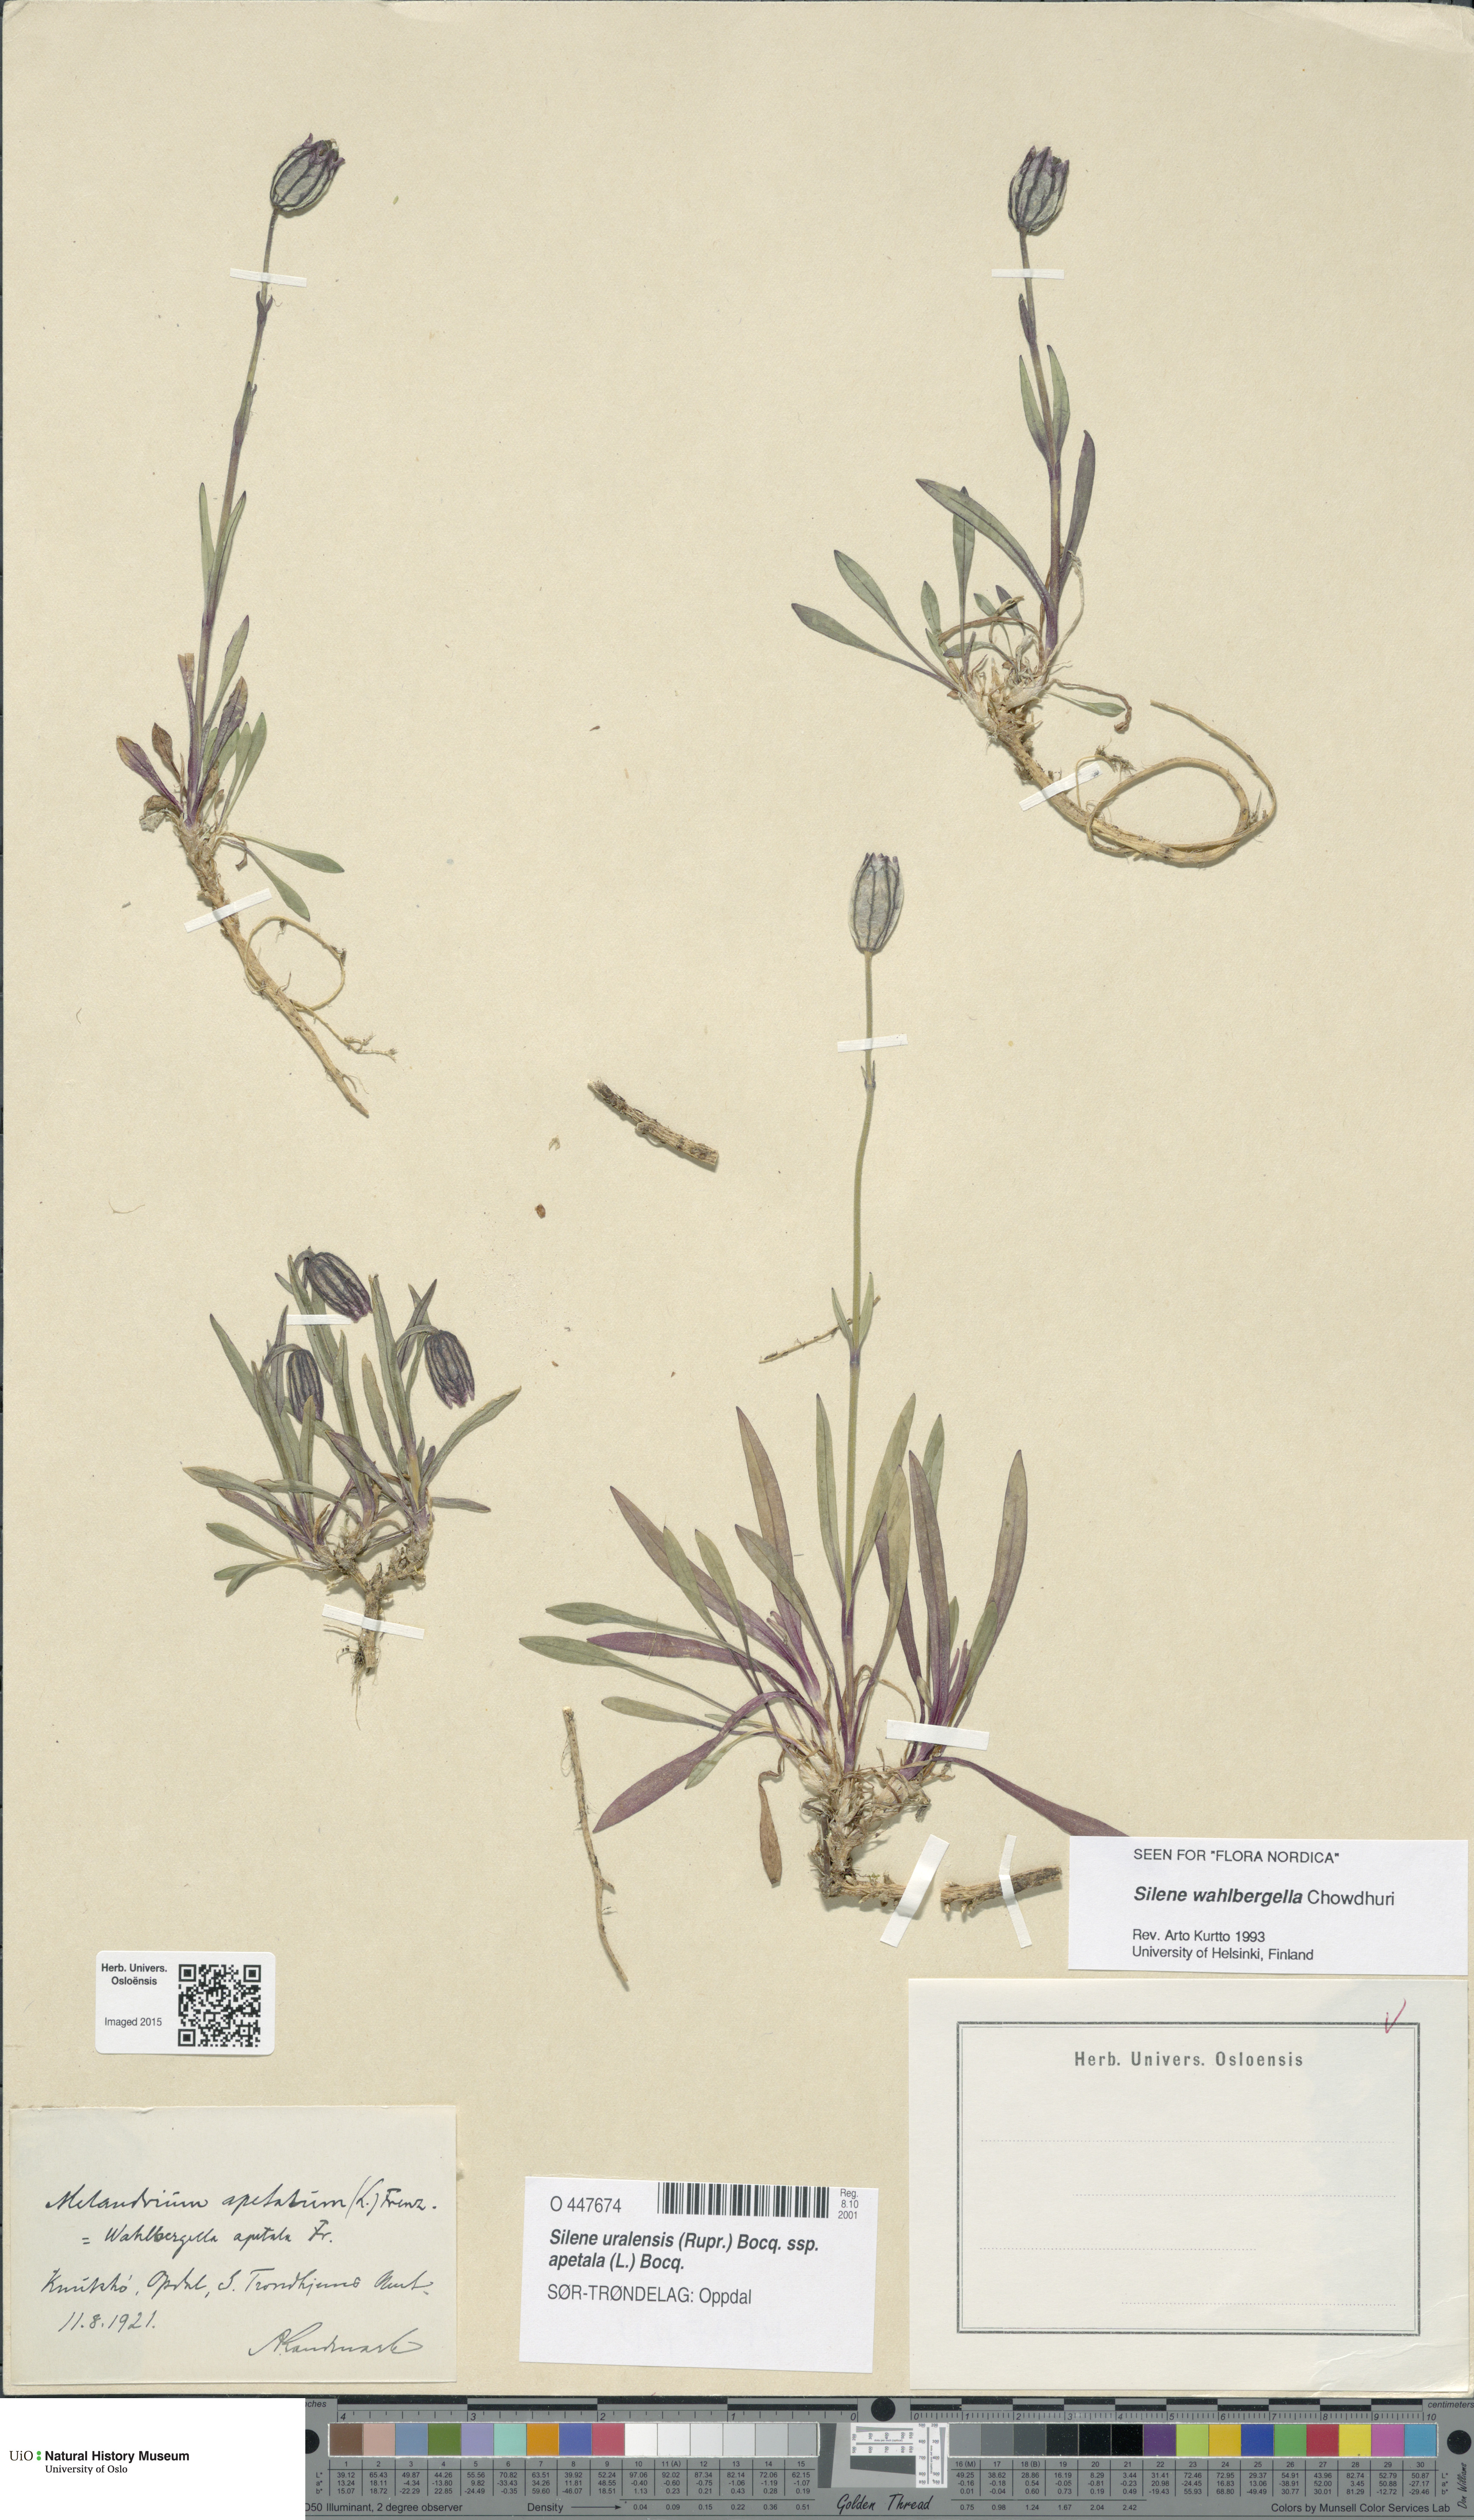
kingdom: Plantae
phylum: Tracheophyta
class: Magnoliopsida
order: Caryophyllales
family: Caryophyllaceae
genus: Silene
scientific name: Silene wahlbergella
